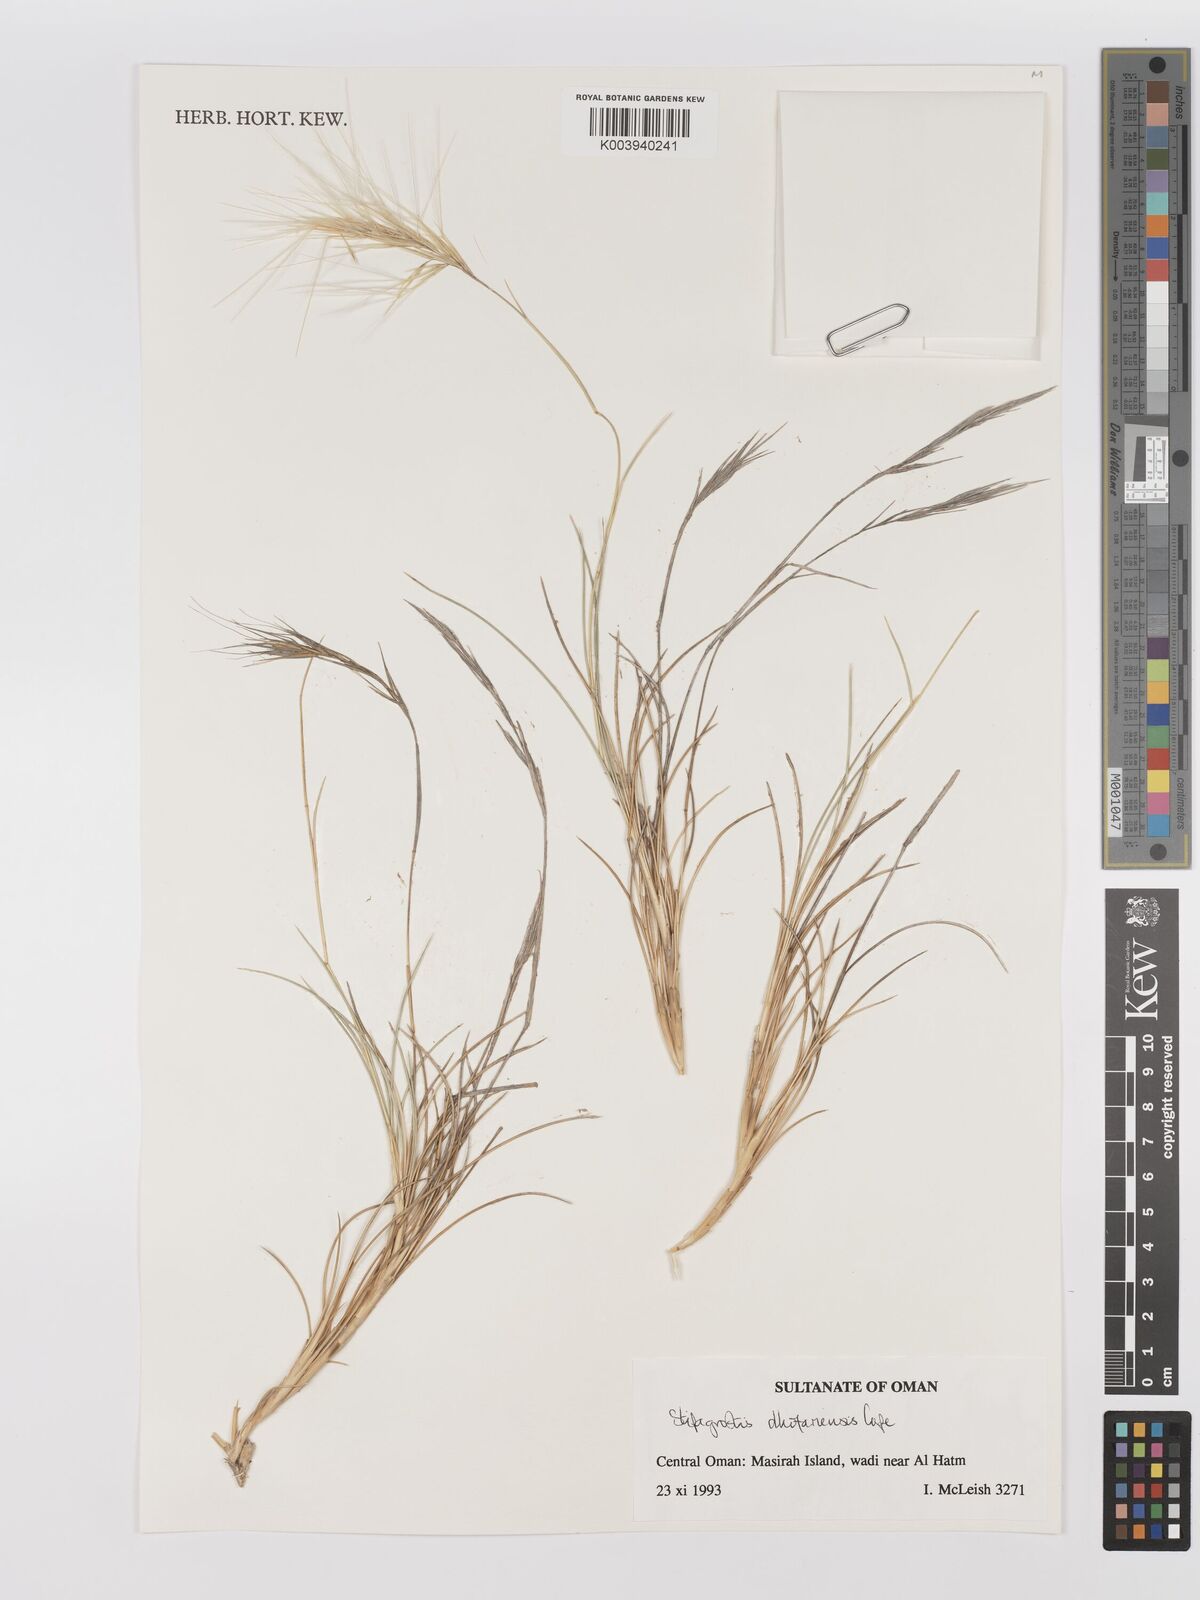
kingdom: Plantae
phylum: Tracheophyta
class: Liliopsida
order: Poales
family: Poaceae
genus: Stipagrostis
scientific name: Stipagrostis dhofariensis
